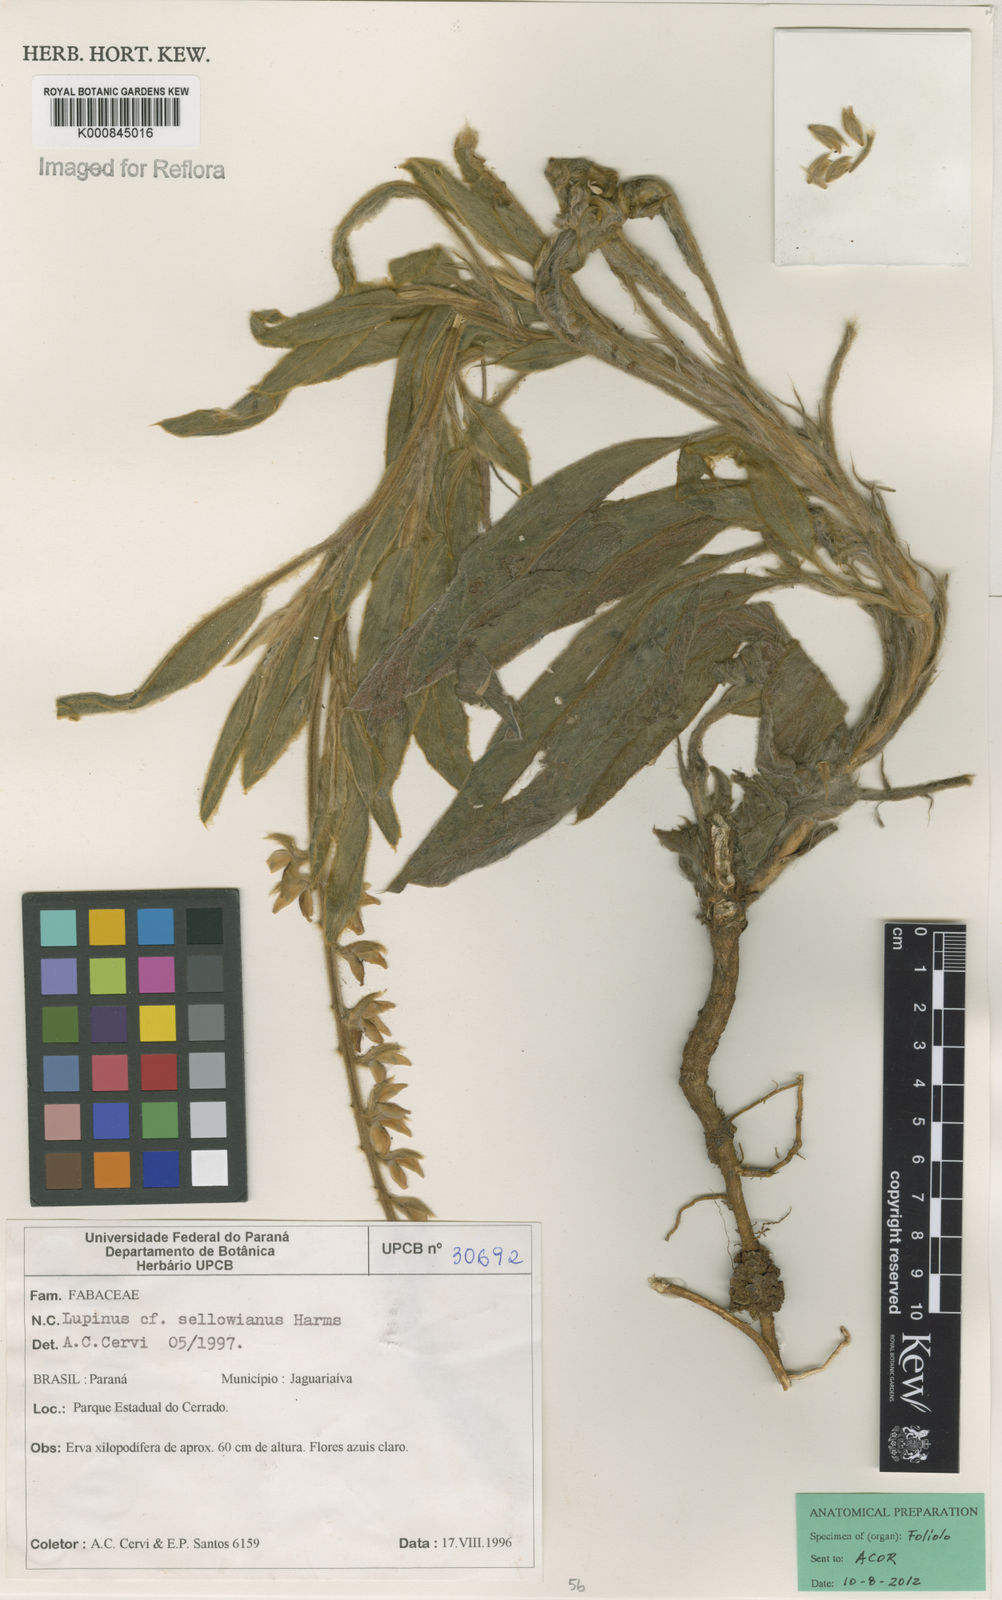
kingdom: Plantae
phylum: Tracheophyta
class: Magnoliopsida
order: Fabales
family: Fabaceae
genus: Lupinus
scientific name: Lupinus sellowianus
